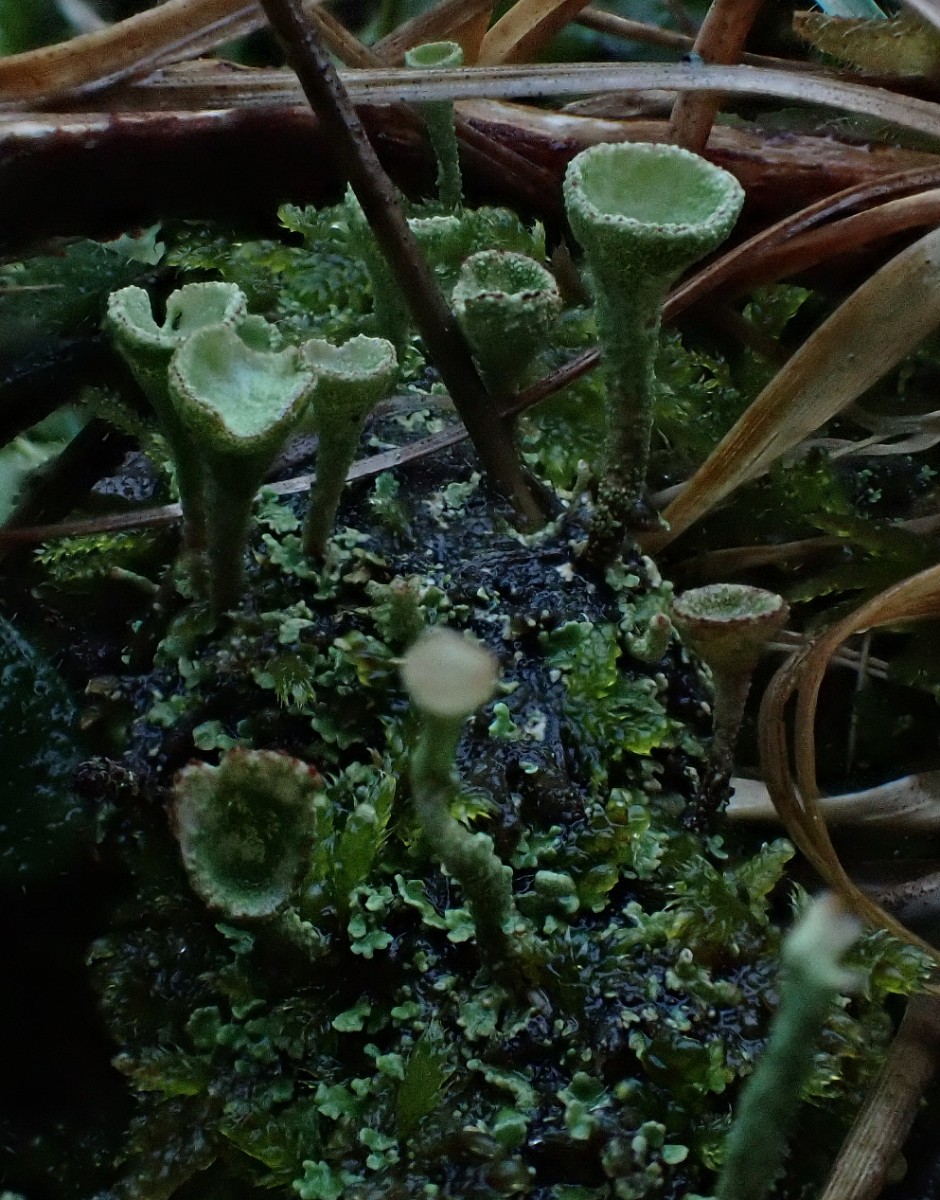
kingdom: Fungi
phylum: Ascomycota
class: Lecanoromycetes
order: Lecanorales
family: Cladoniaceae
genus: Cladonia
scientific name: Cladonia
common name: brungrøn bægerlav
